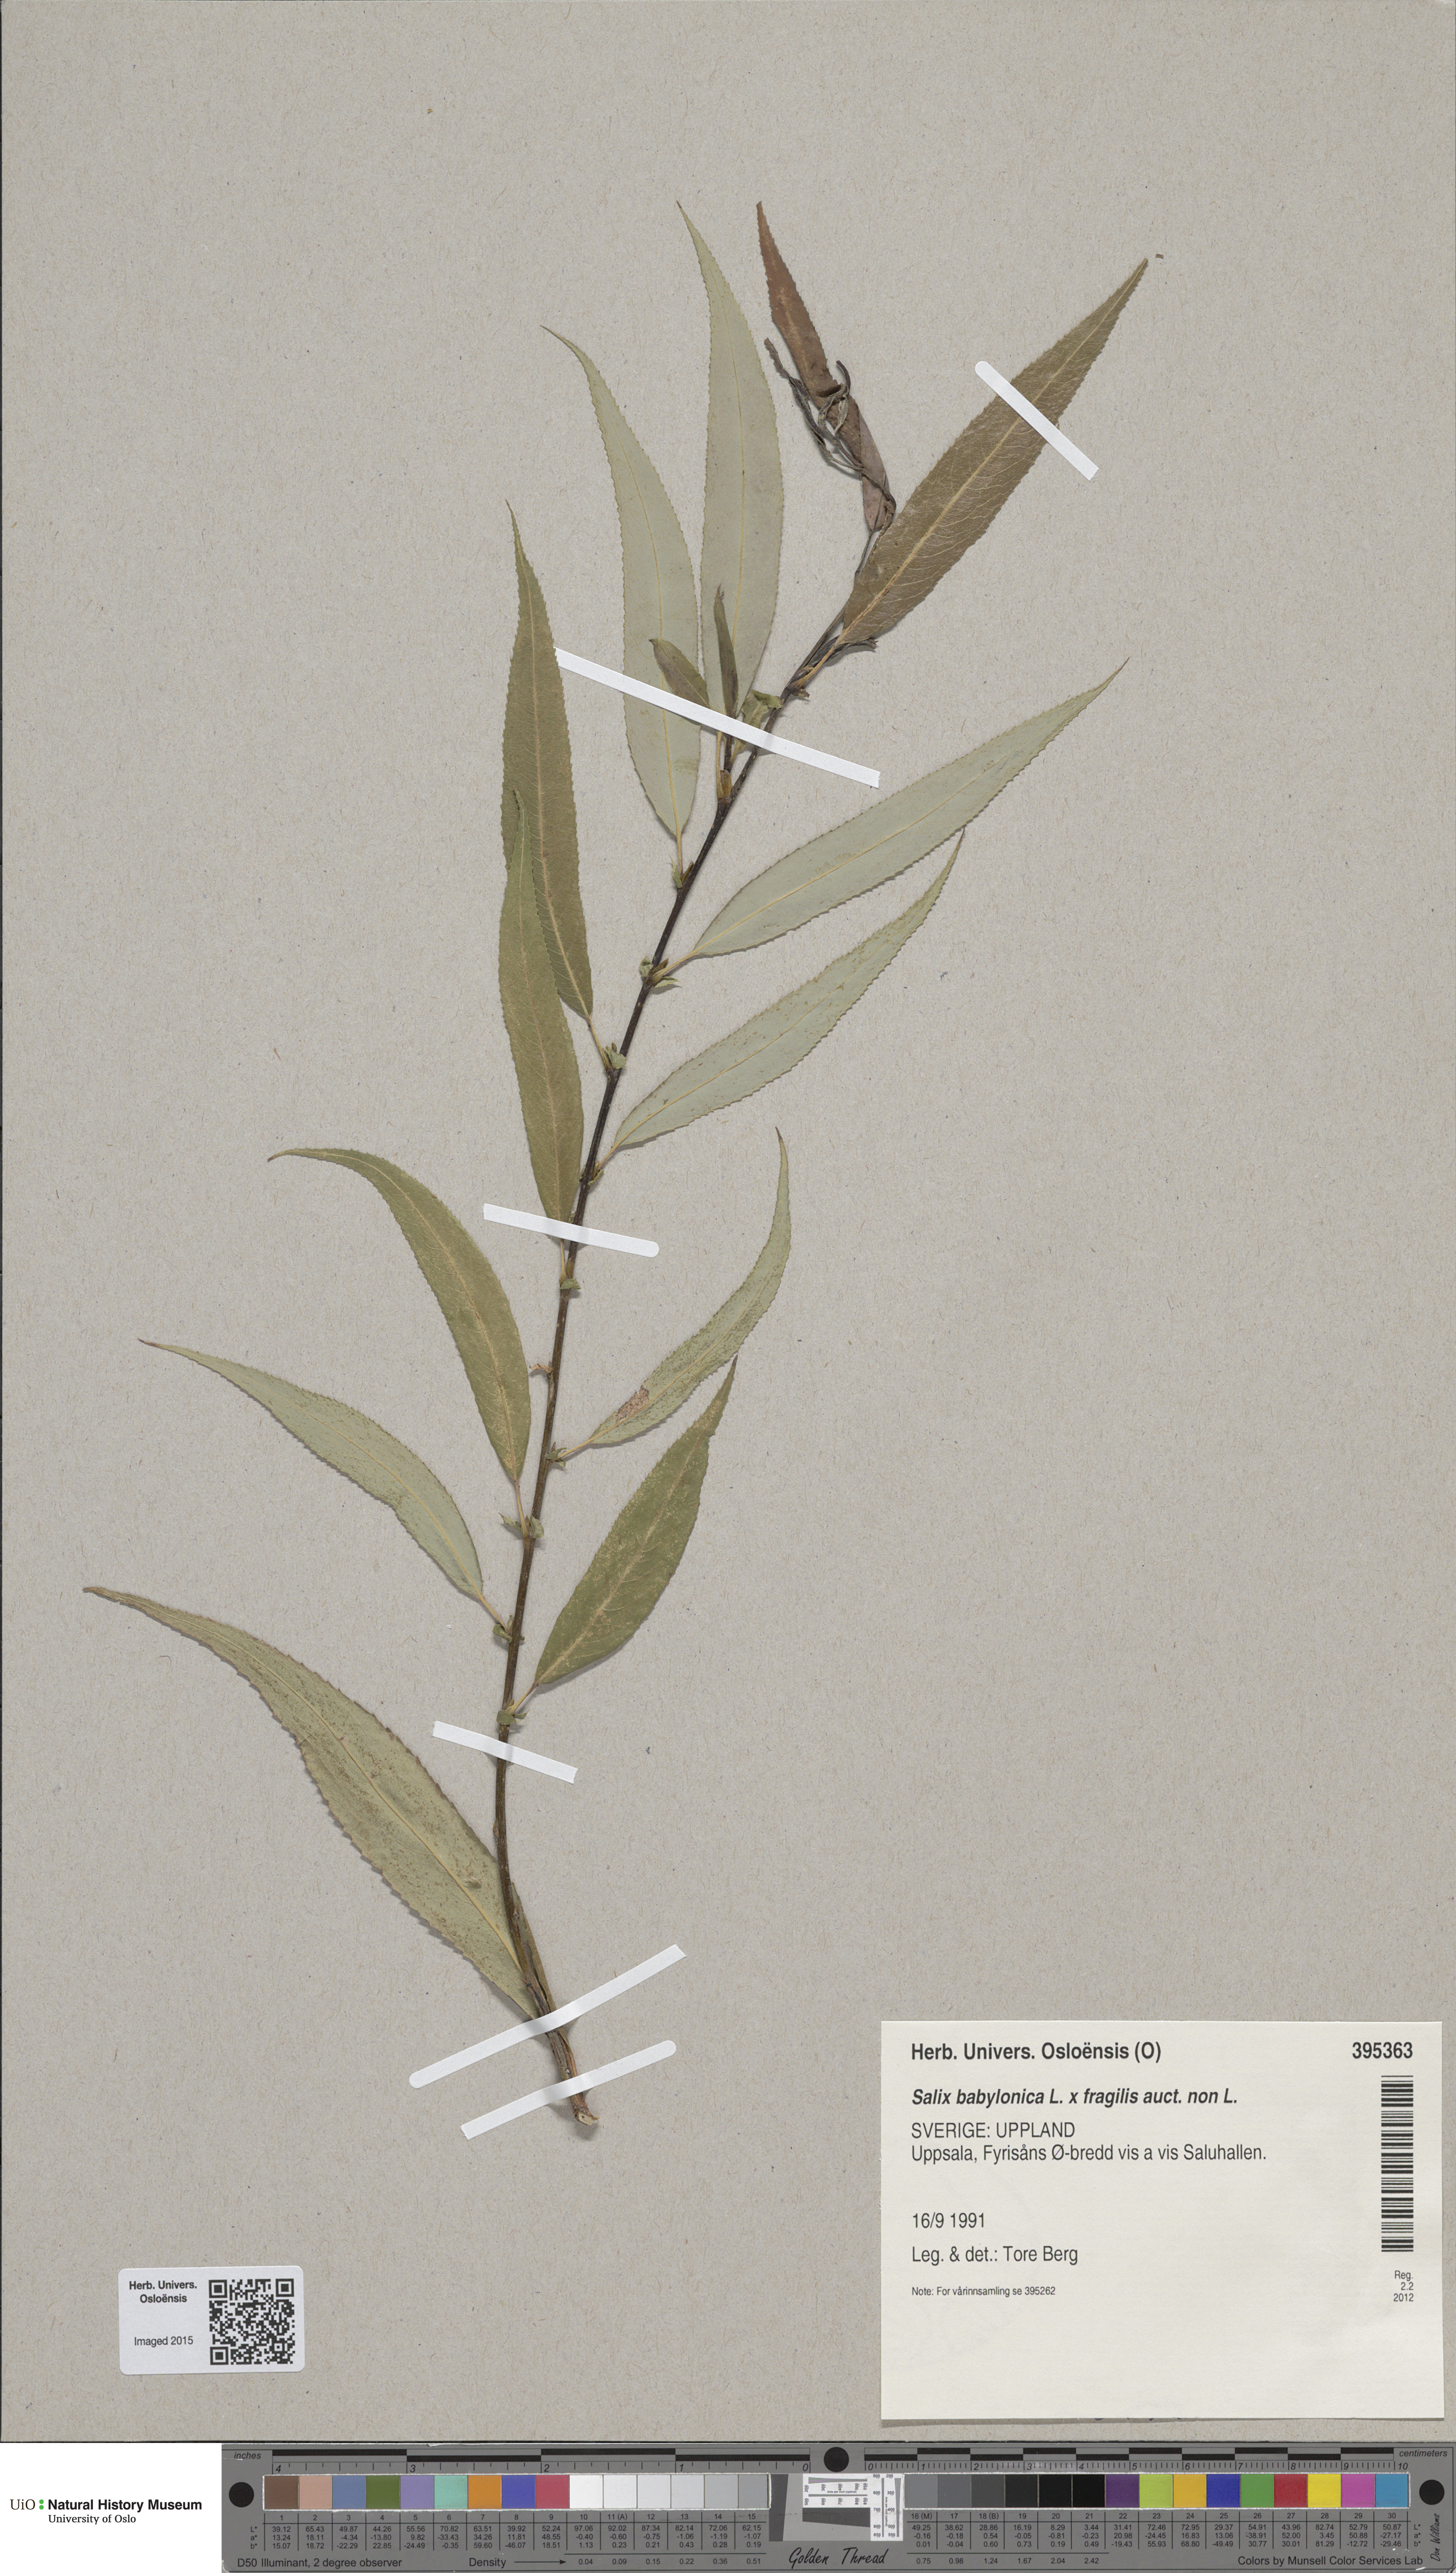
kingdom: Plantae
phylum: Tracheophyta
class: Magnoliopsida
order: Malpighiales
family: Salicaceae
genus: Salix
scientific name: Salix babylonica
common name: Weeping willow
